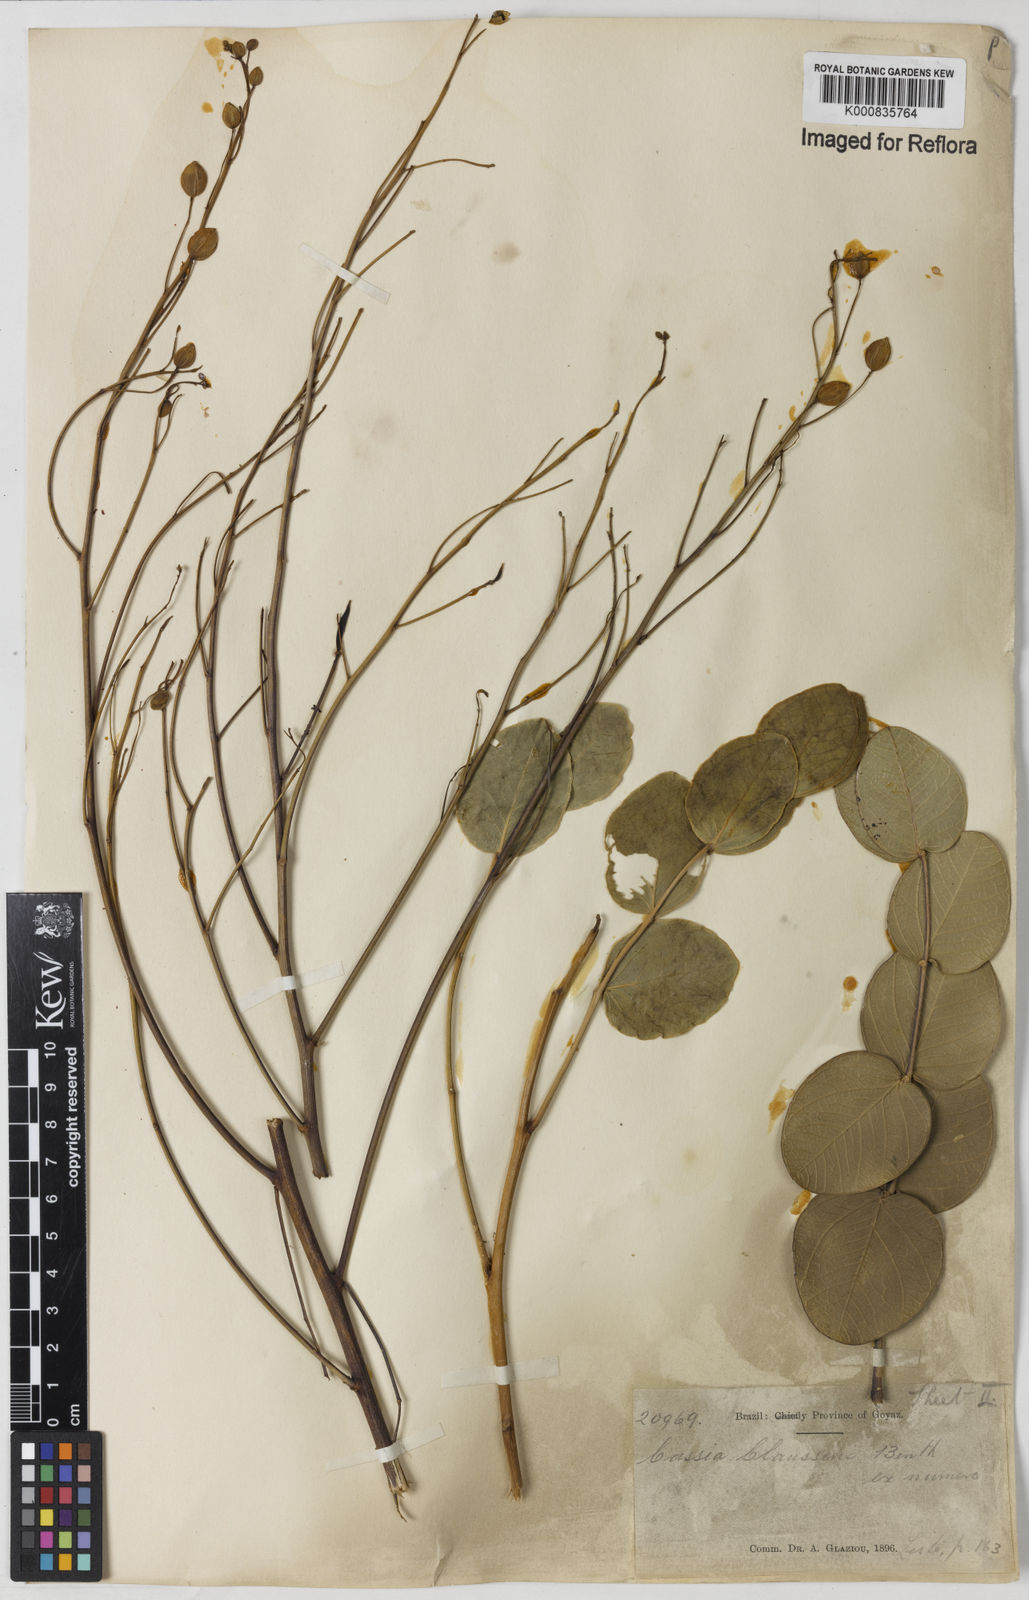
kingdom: Plantae
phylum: Tracheophyta
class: Magnoliopsida
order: Fabales
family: Fabaceae
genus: Chamaecrista
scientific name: Chamaecrista claussenii
